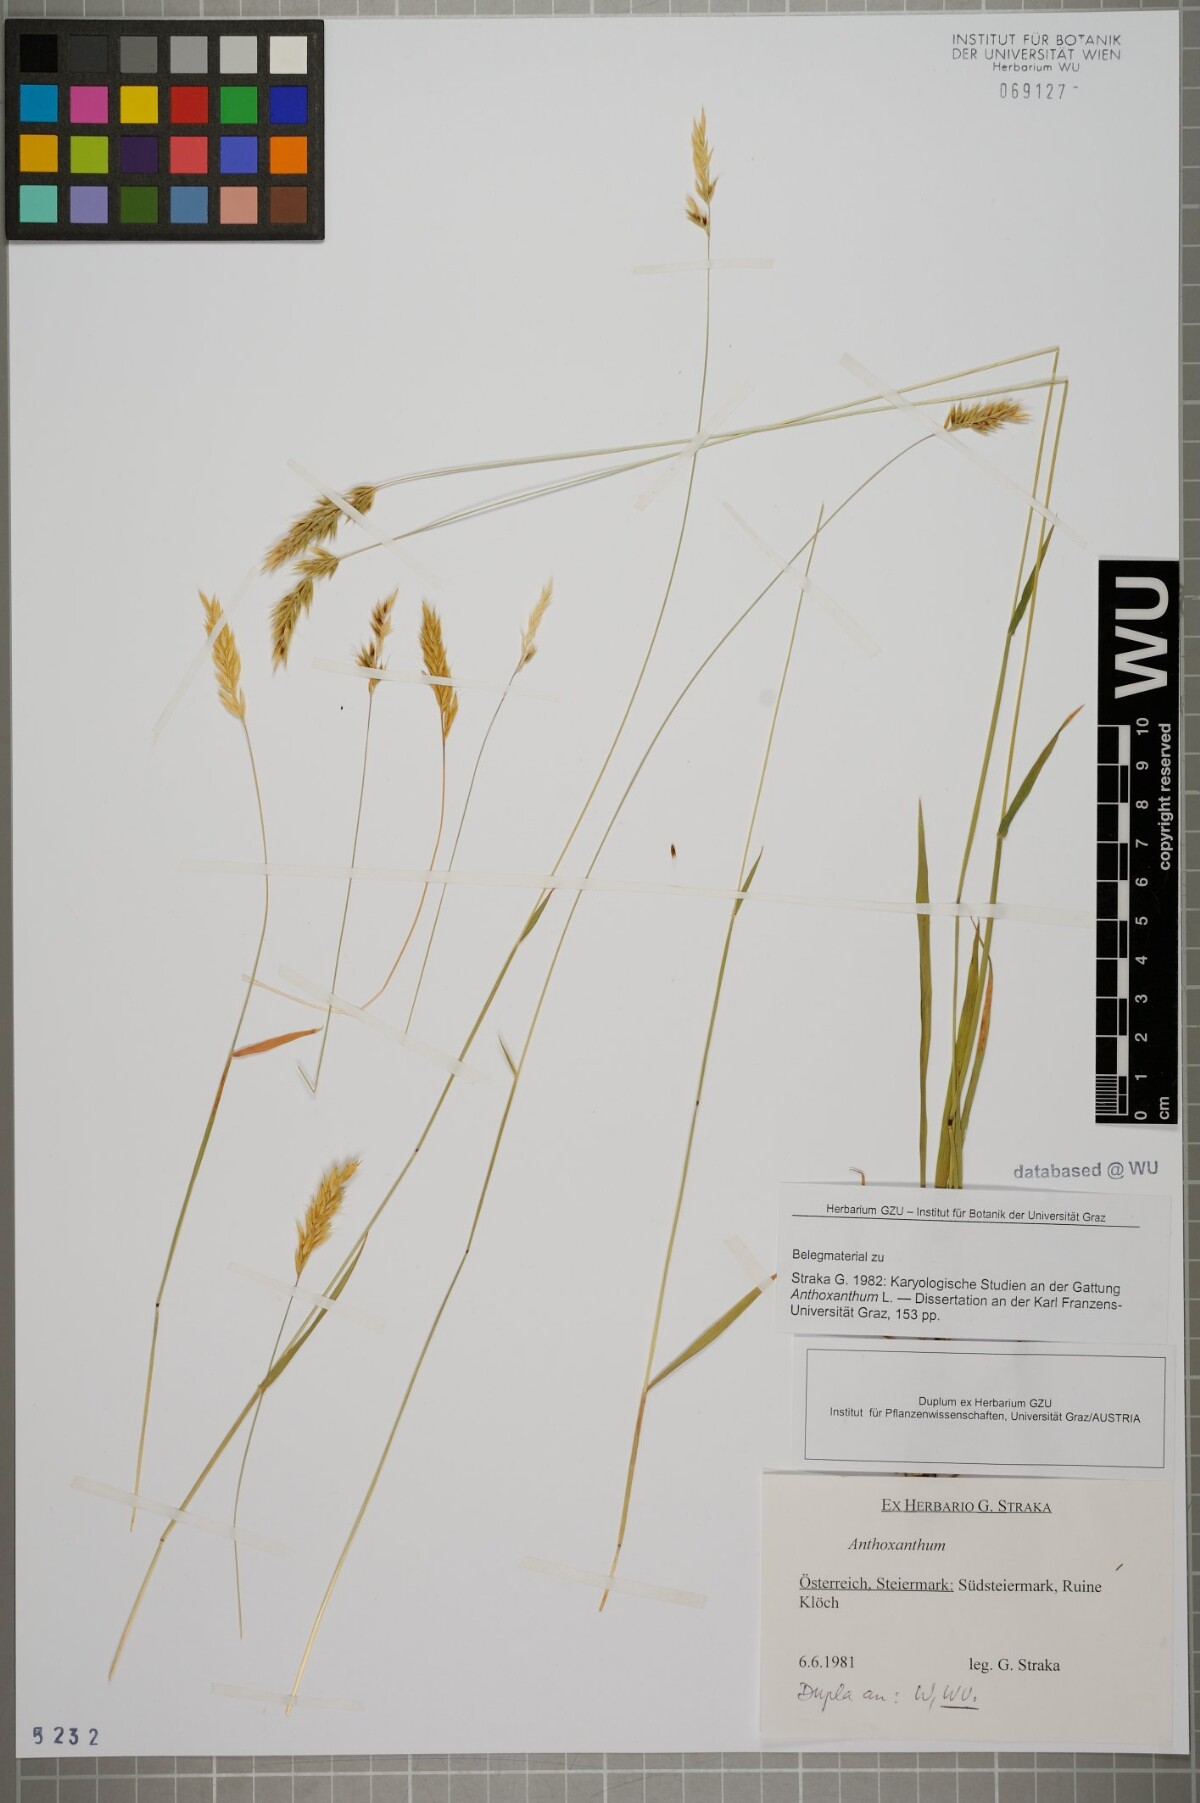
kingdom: Plantae
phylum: Tracheophyta
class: Liliopsida
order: Poales
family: Poaceae
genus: Anthoxanthum
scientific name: Anthoxanthum
